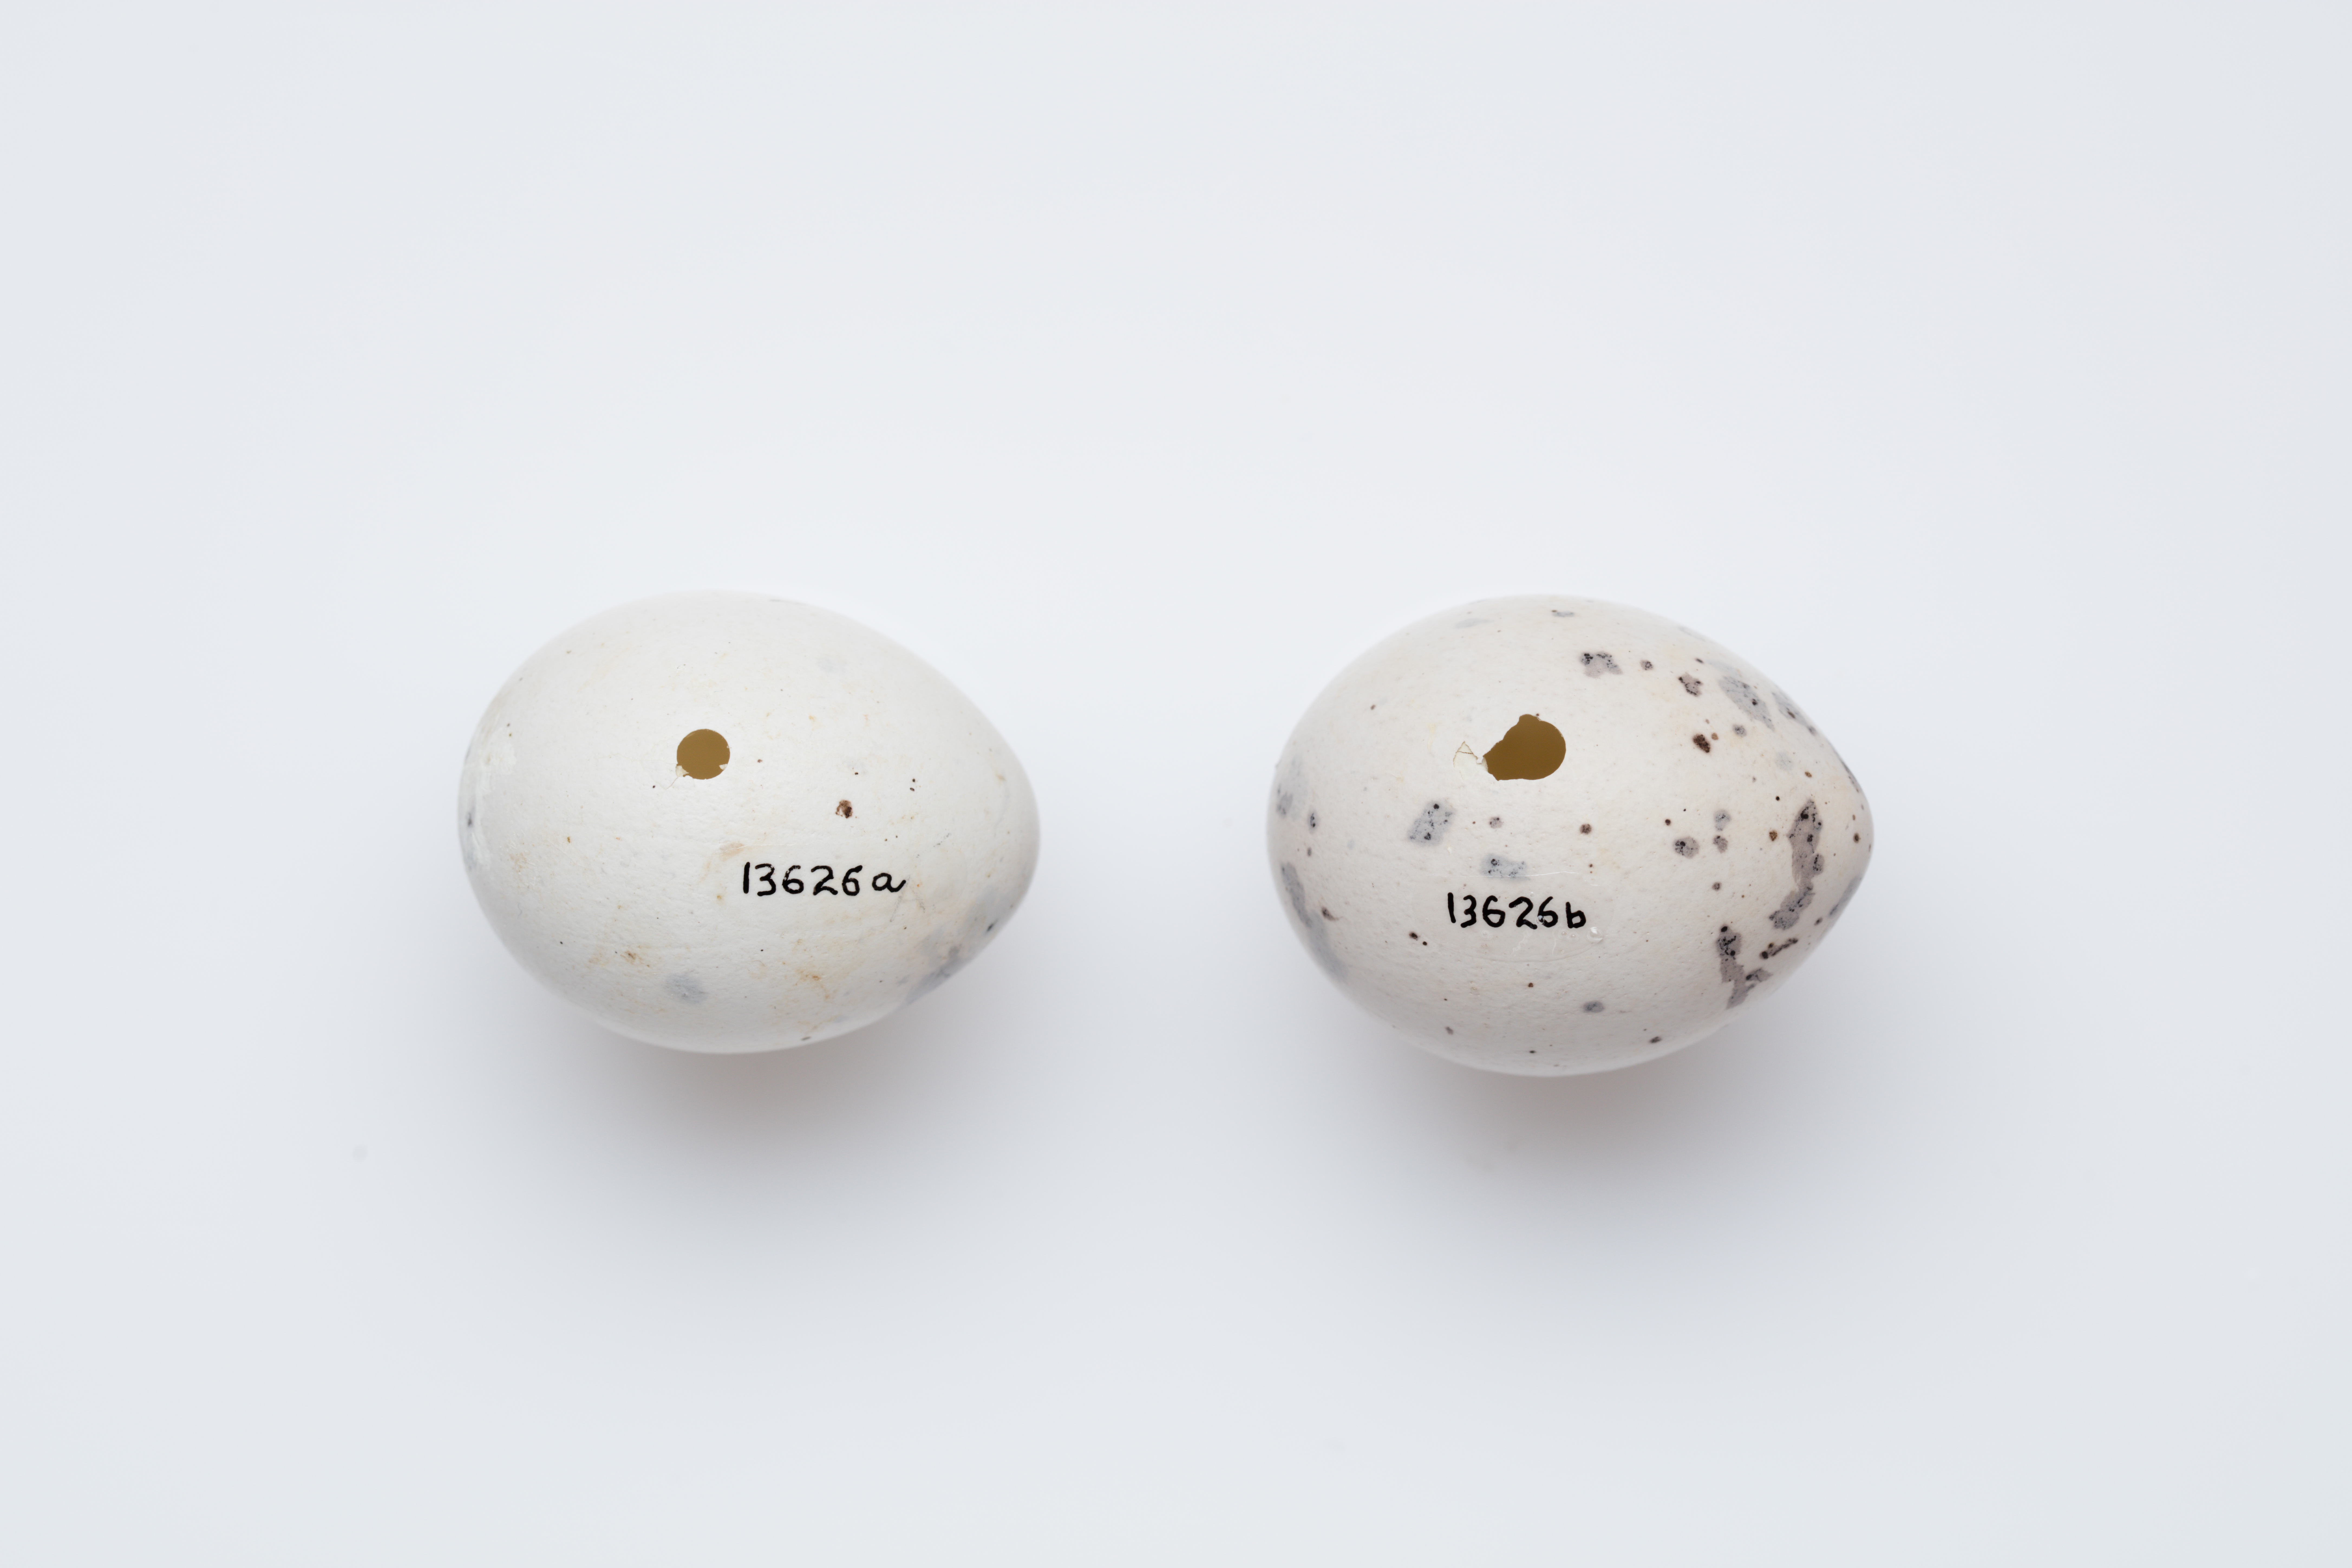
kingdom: Animalia
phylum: Chordata
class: Aves
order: Passeriformes
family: Callaeatidae
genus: Callaeas
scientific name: Callaeas cinereus
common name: South island kokako
